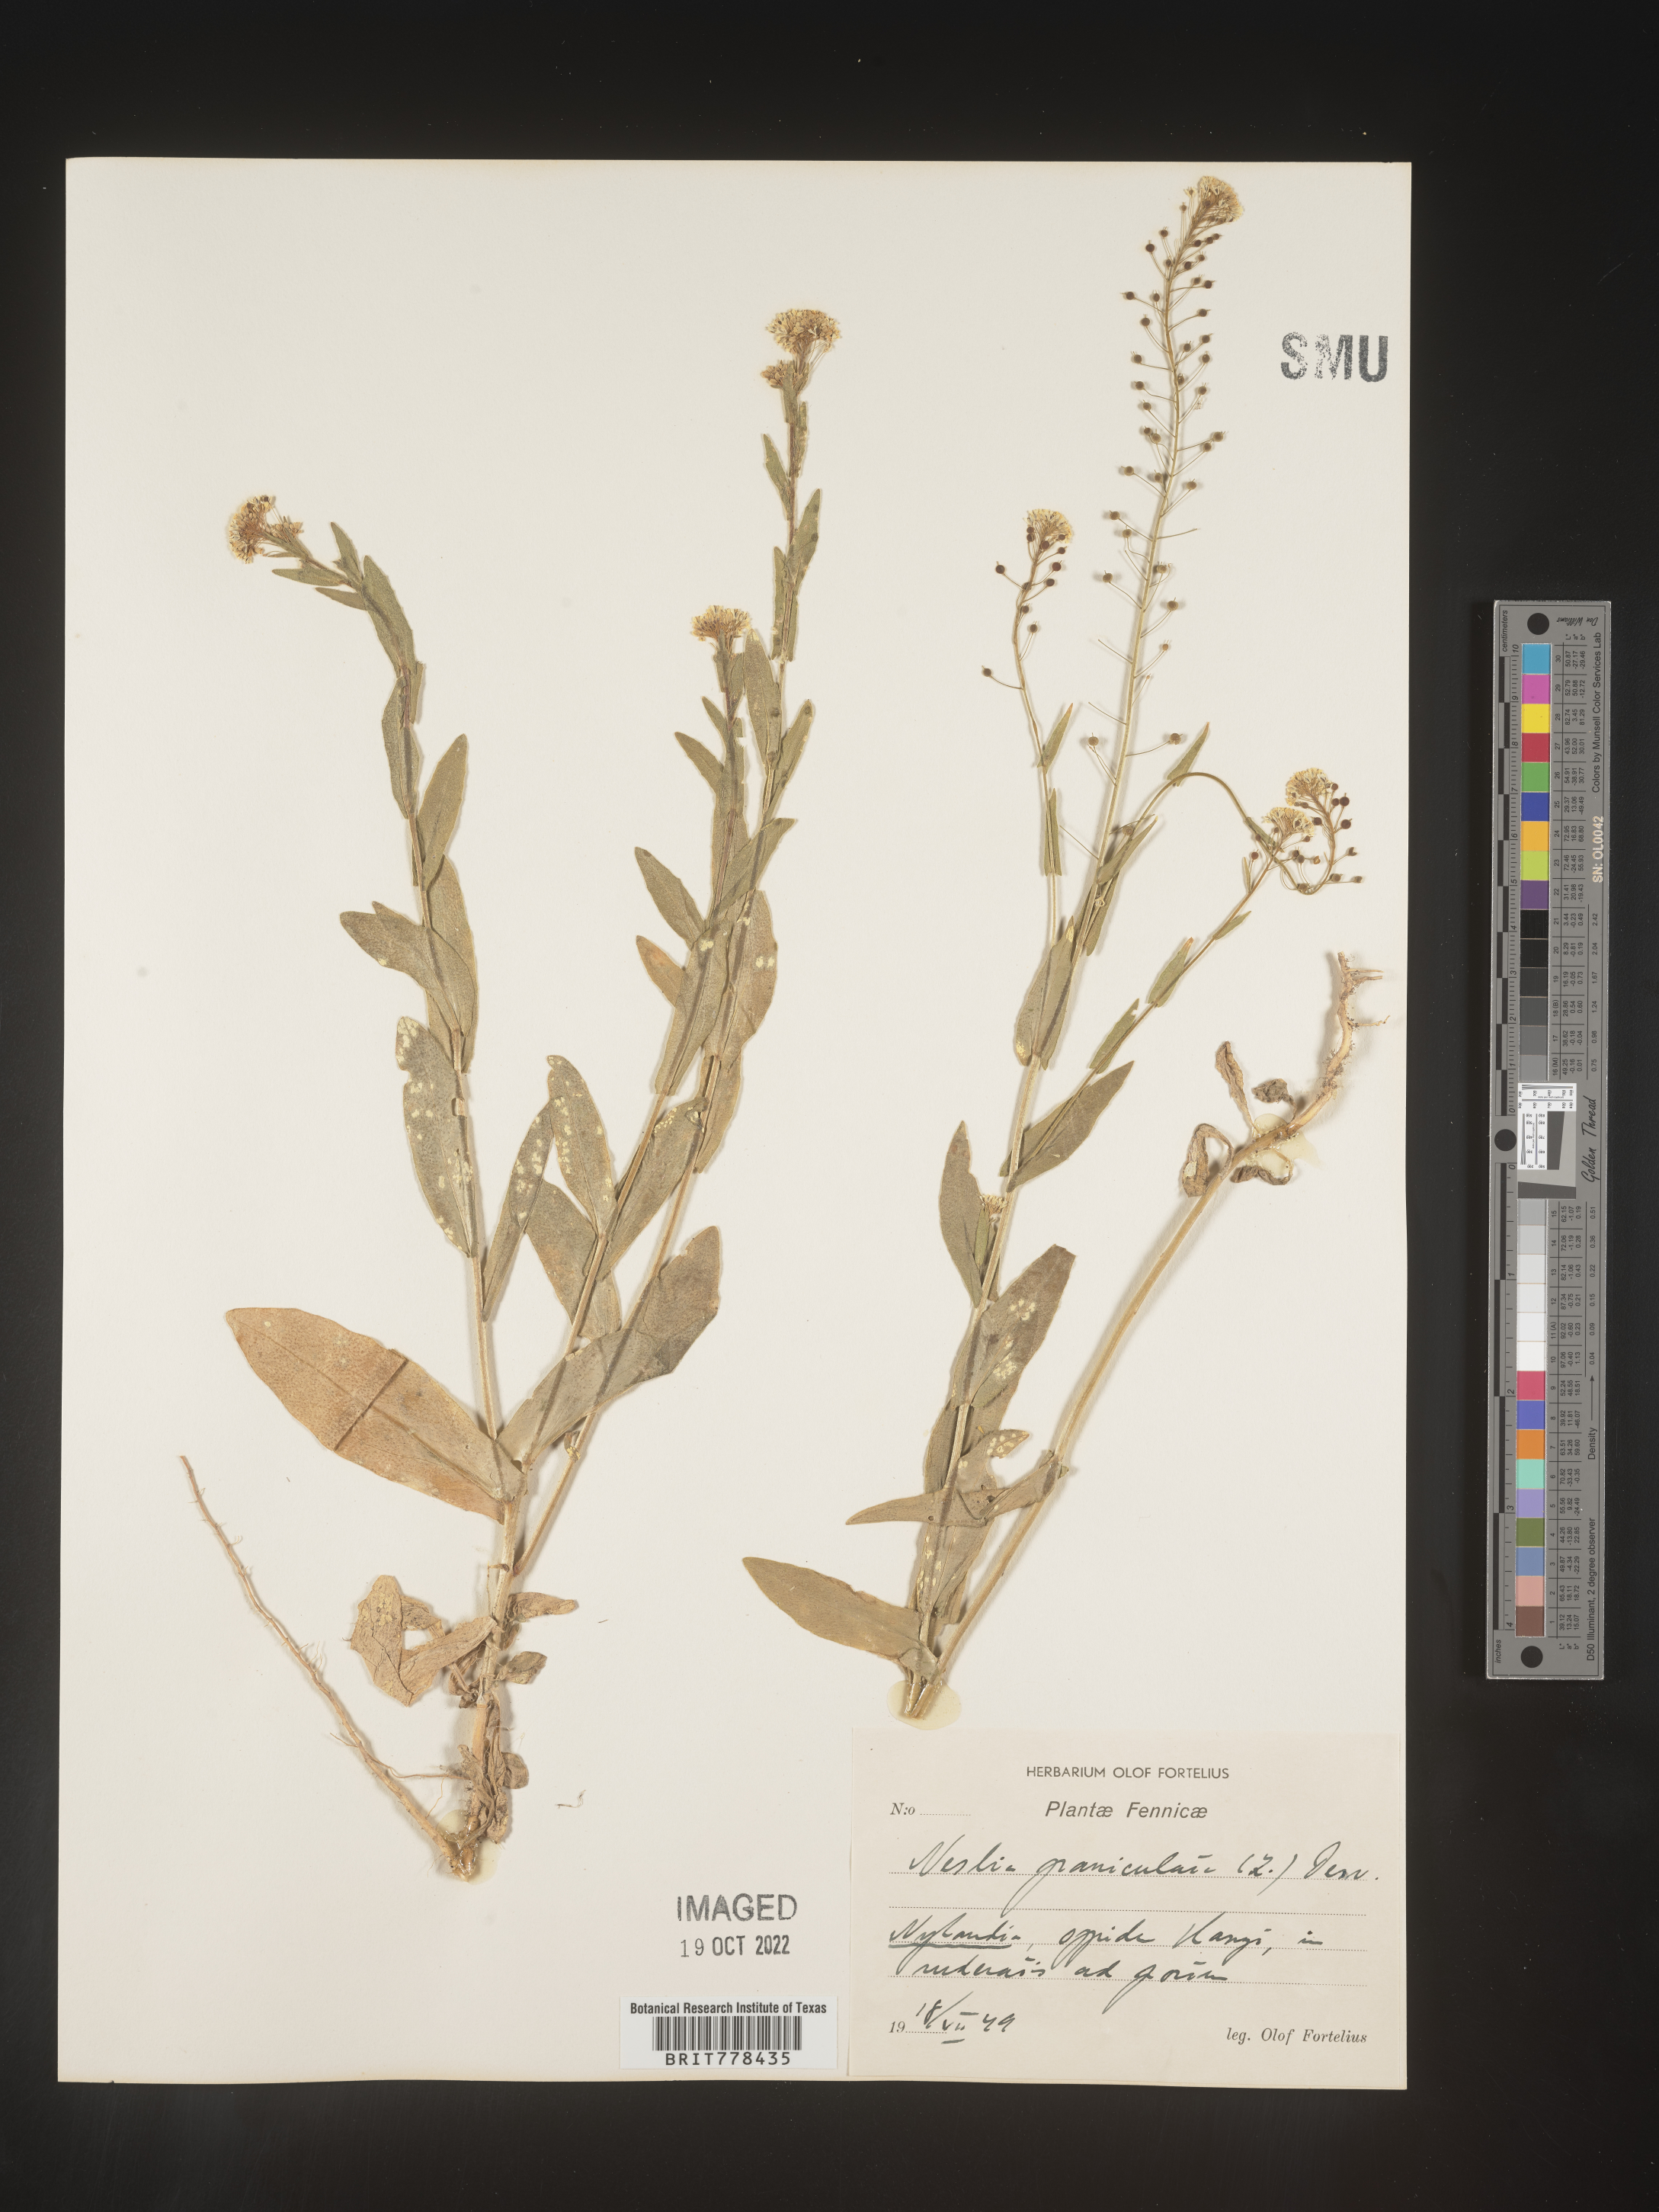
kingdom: Plantae
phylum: Tracheophyta
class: Magnoliopsida
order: Brassicales
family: Brassicaceae
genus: Neslia
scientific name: Neslia
